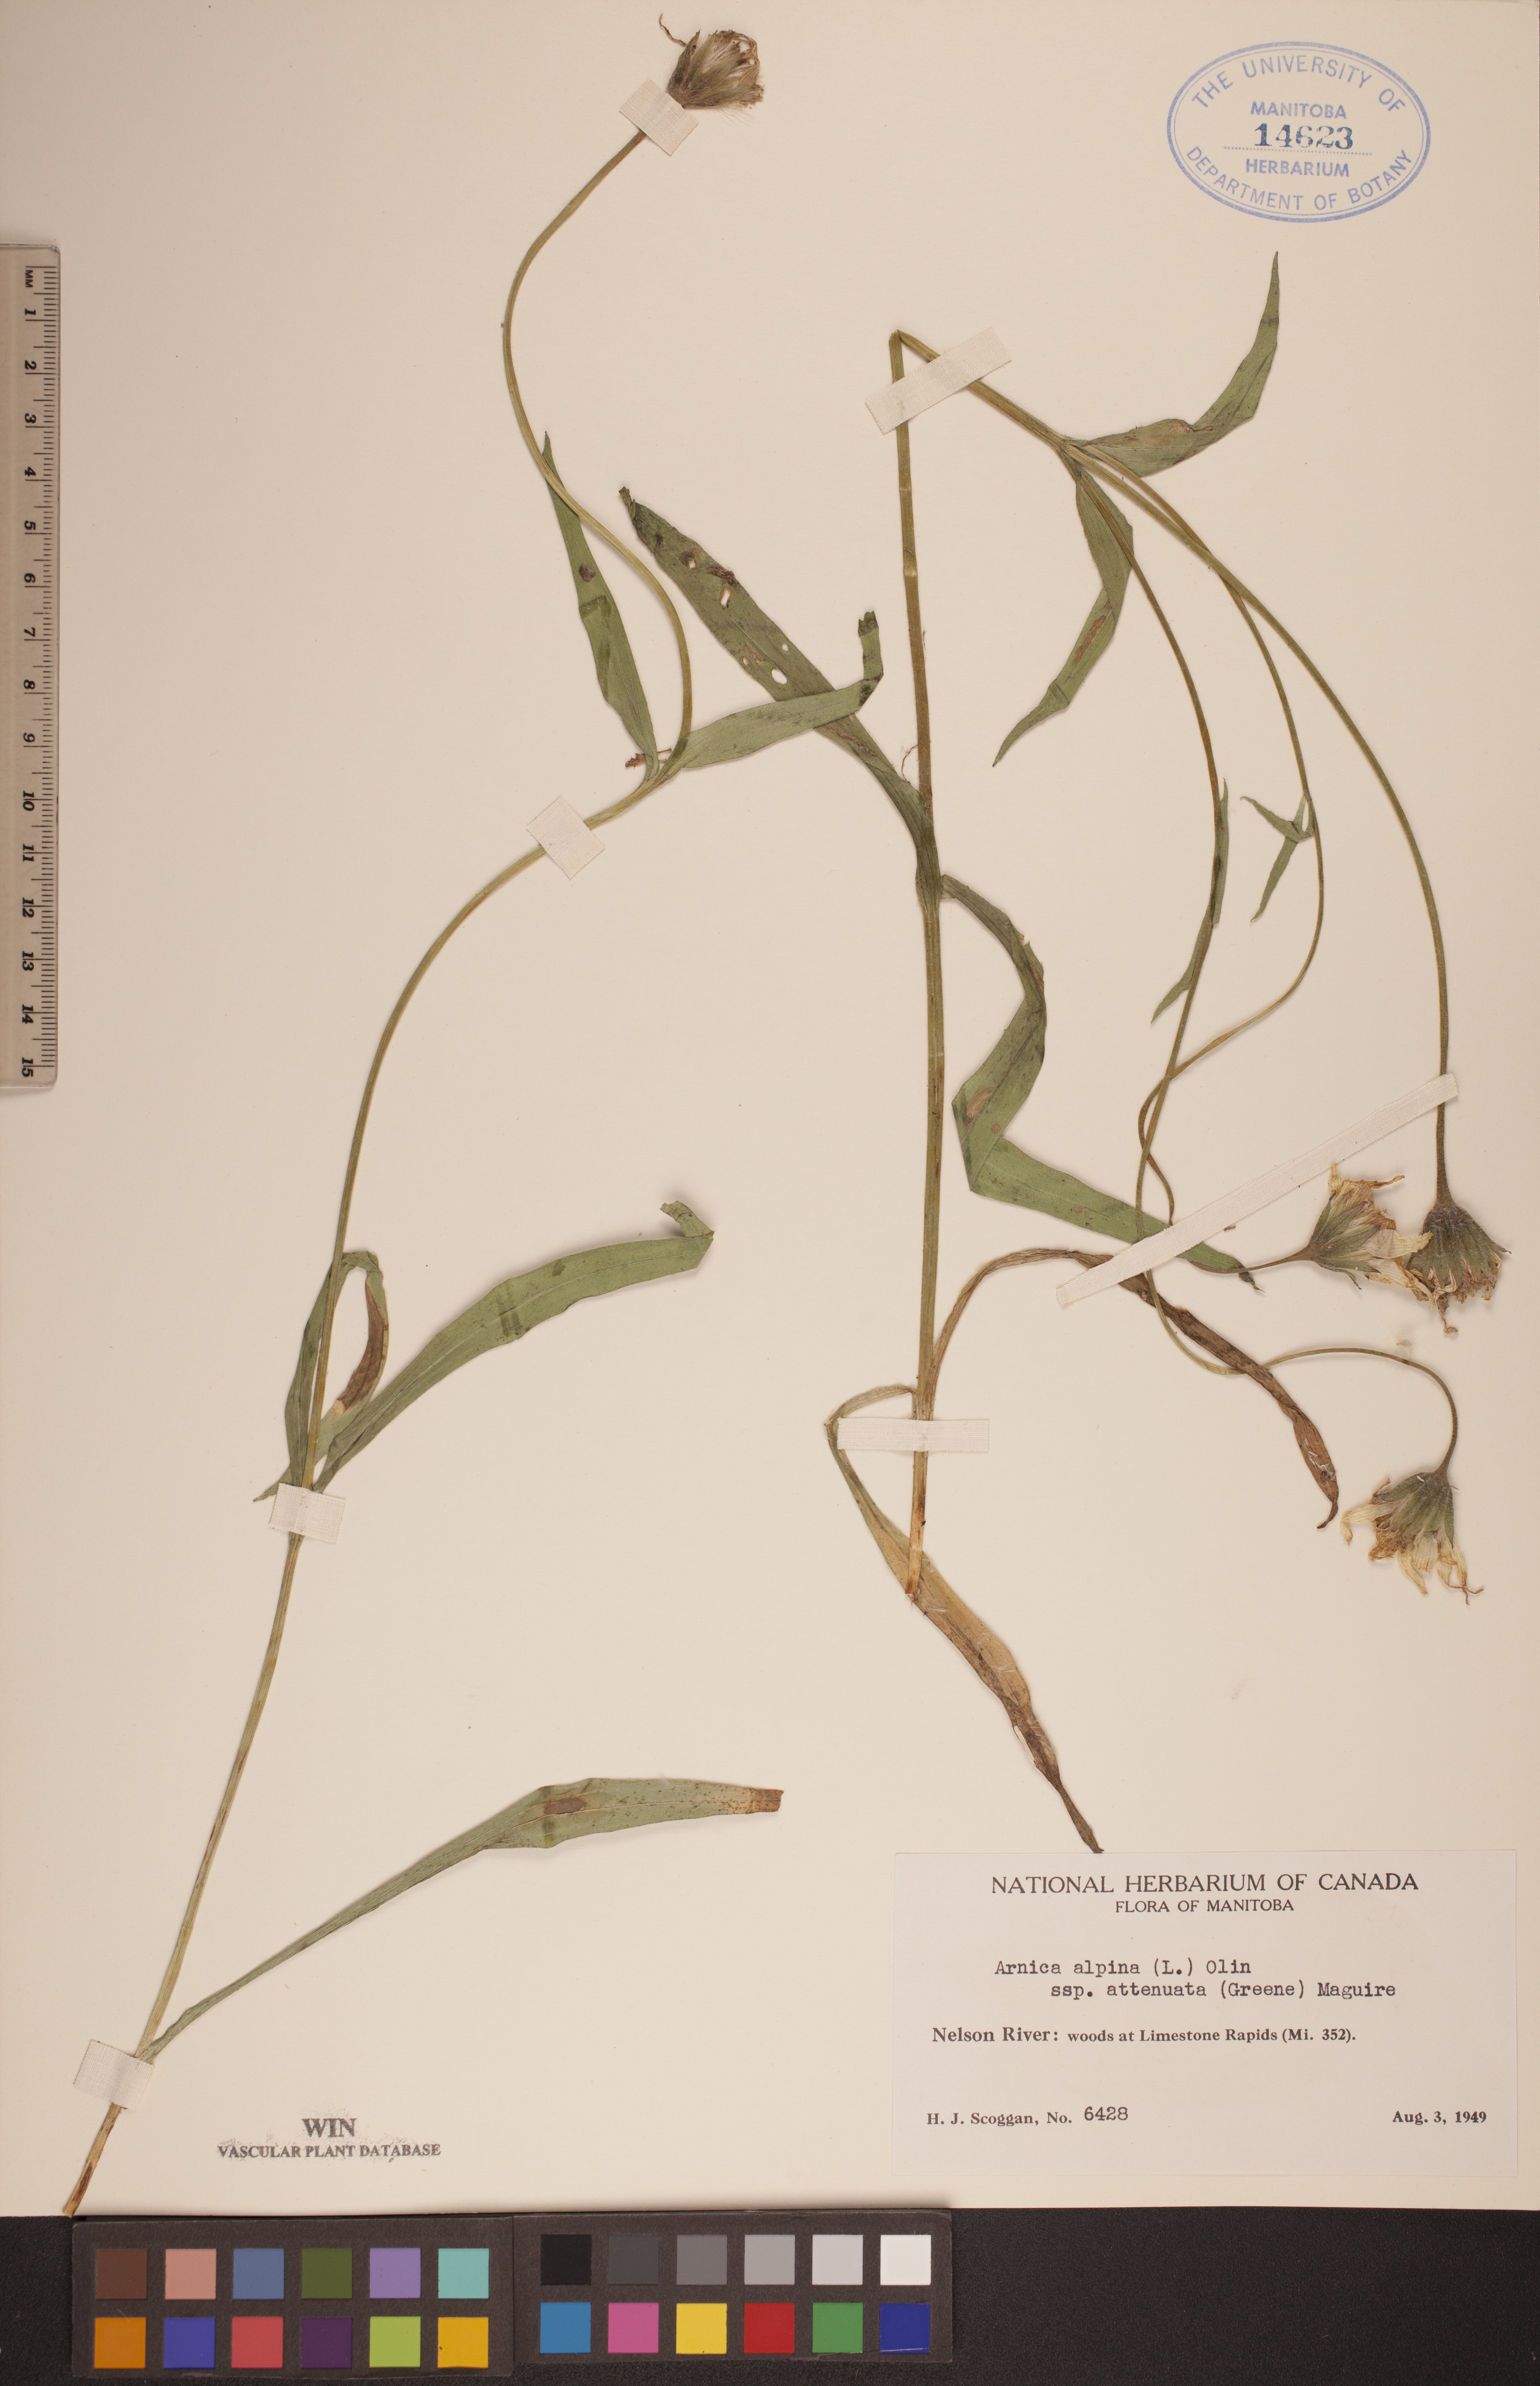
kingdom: Plantae
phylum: Tracheophyta
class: Magnoliopsida
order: Asterales
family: Asteraceae
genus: Arnica
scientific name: Arnica angustifolia
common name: Arctic arnica
